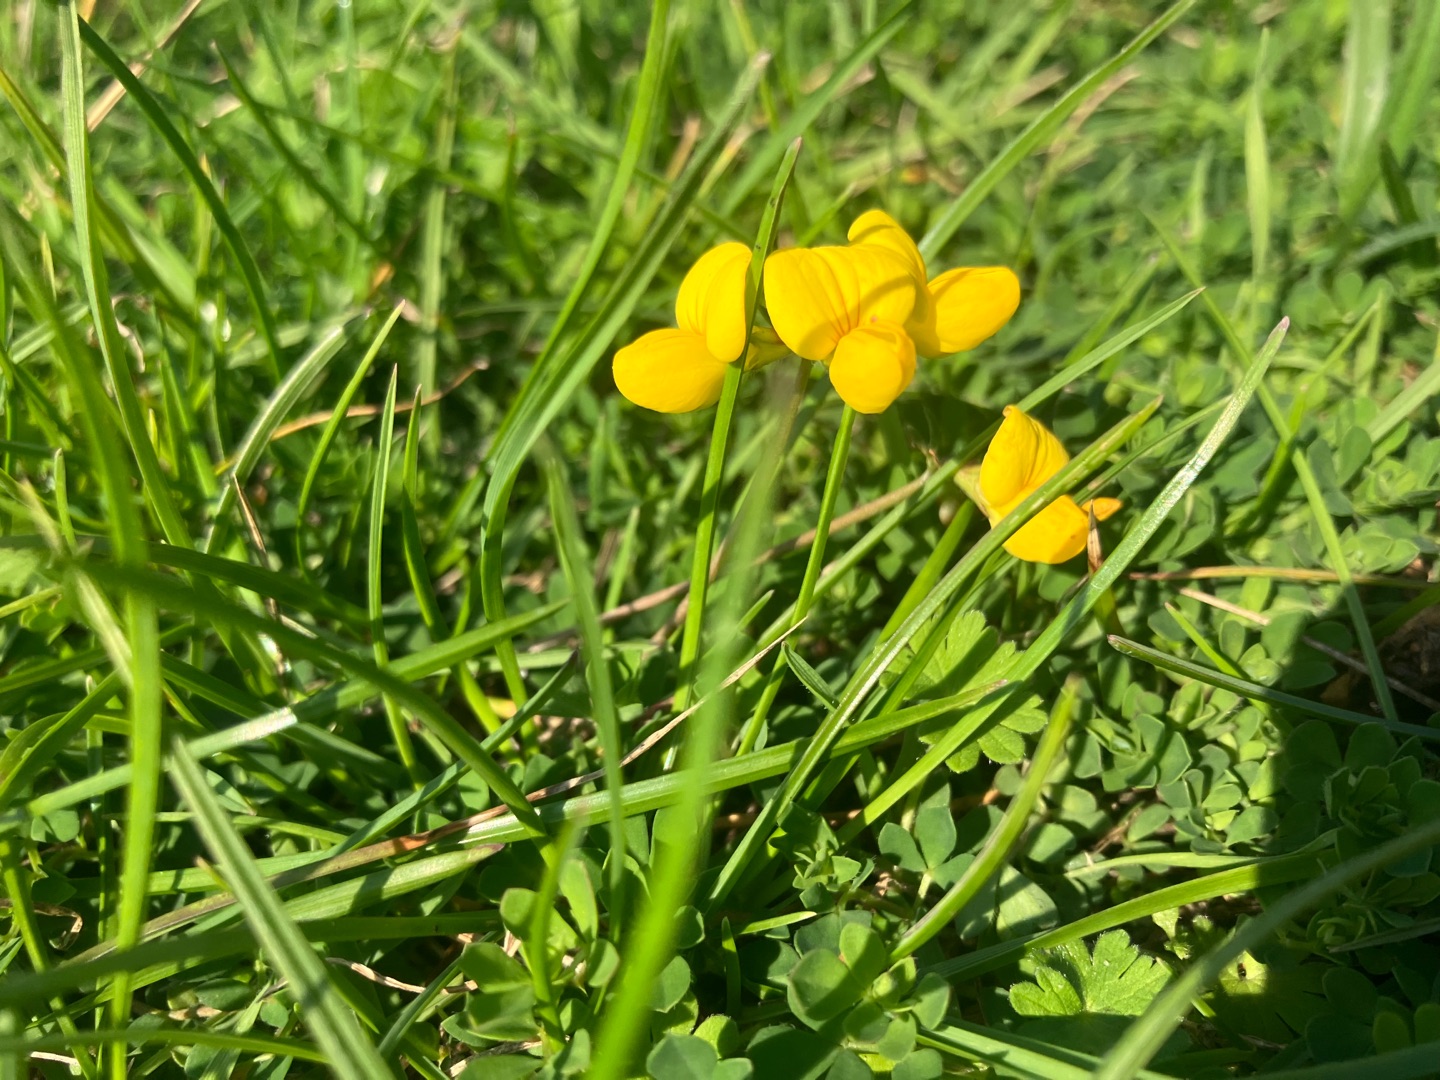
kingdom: Plantae
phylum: Tracheophyta
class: Magnoliopsida
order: Fabales
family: Fabaceae
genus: Lotus
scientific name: Lotus corniculatus
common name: Almindelig kællingetand
